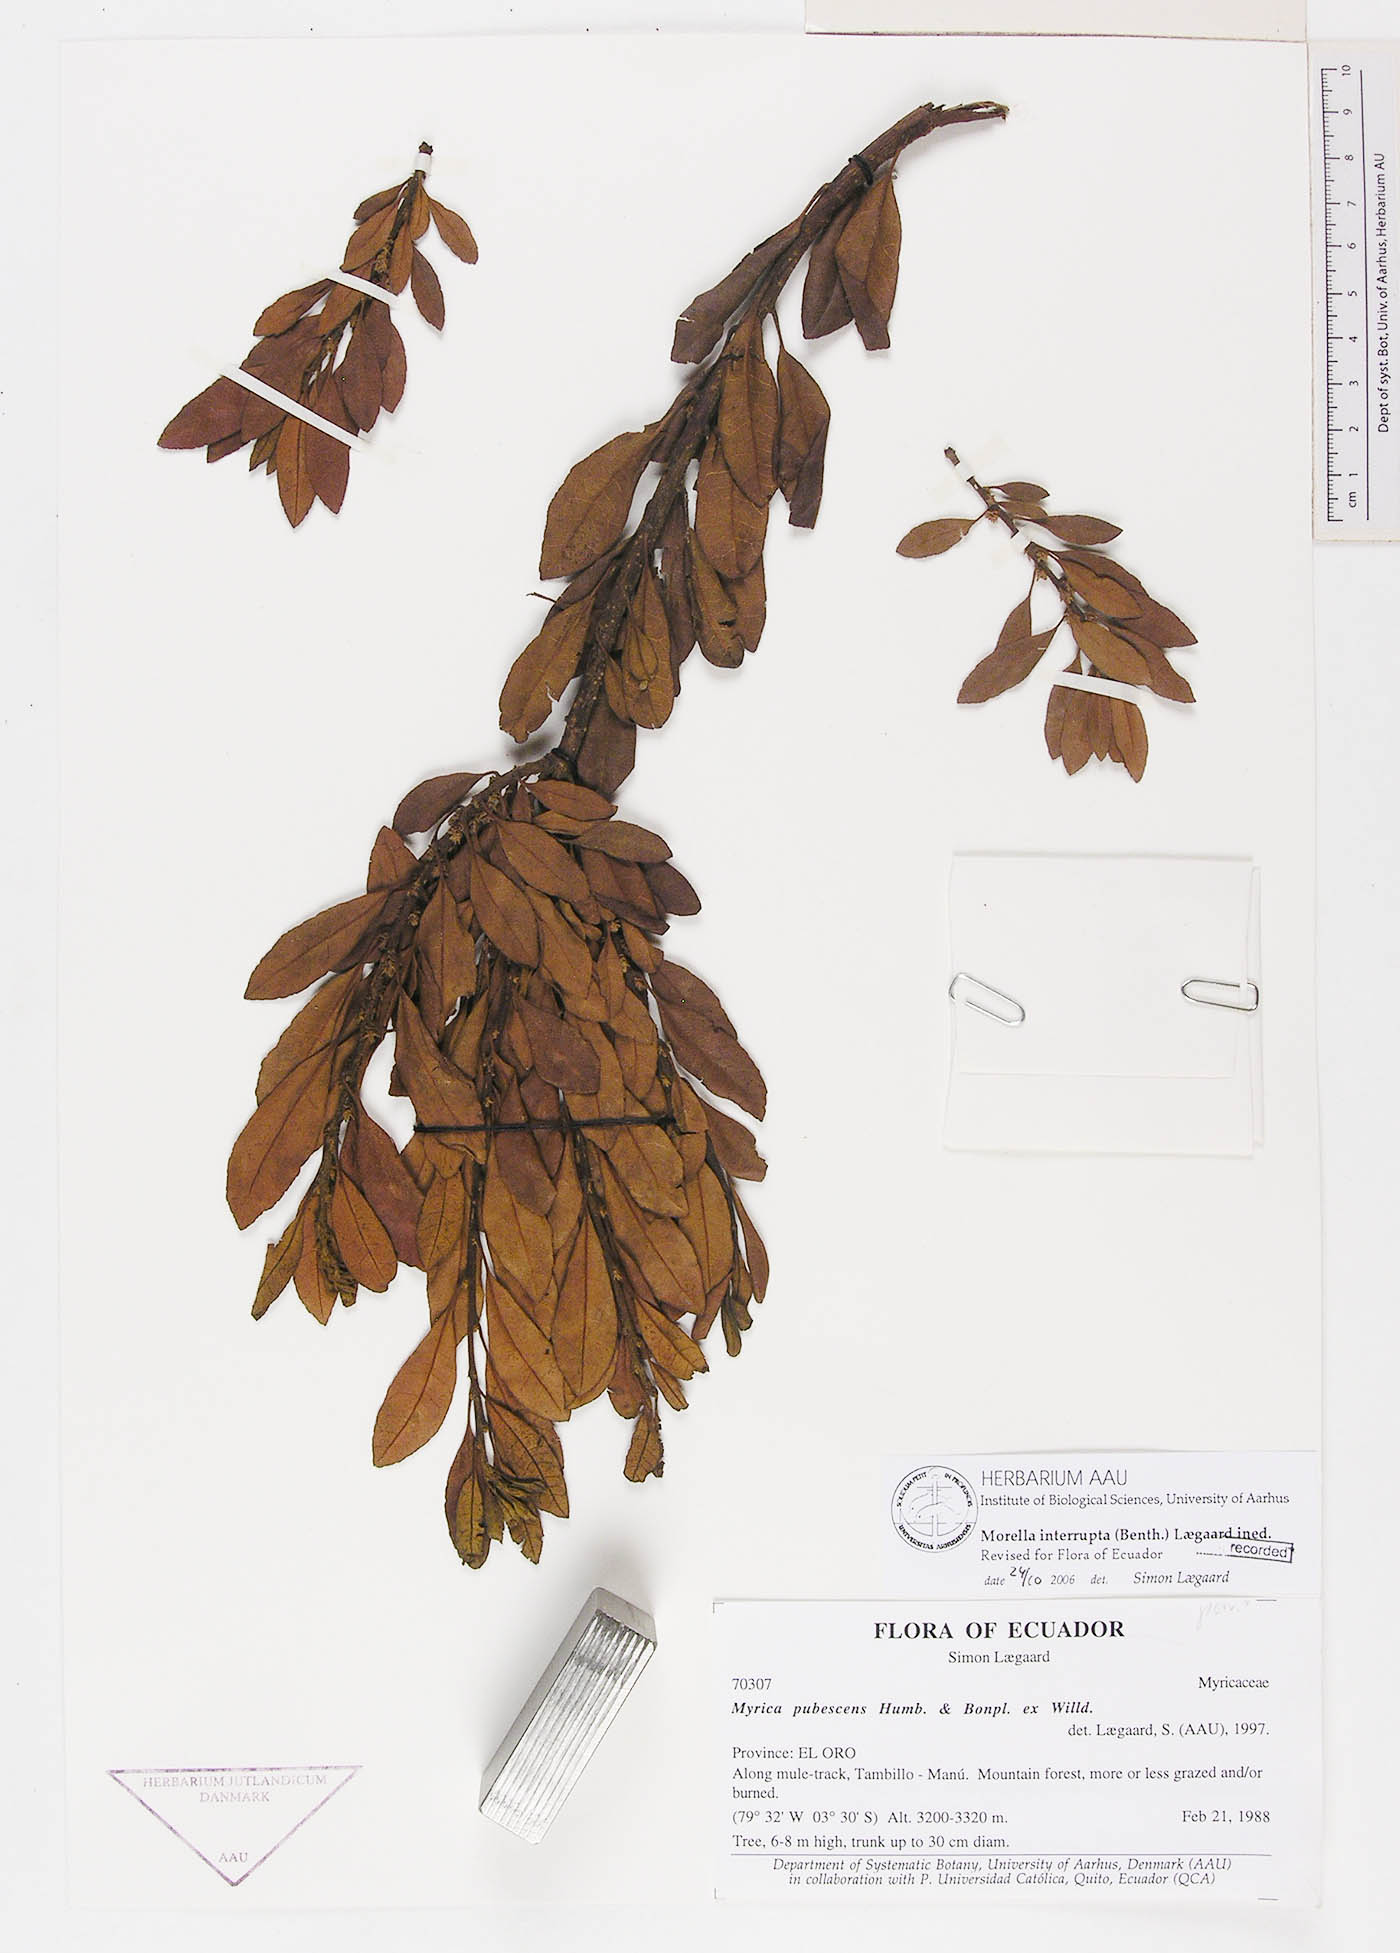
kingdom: Plantae
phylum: Tracheophyta
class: Magnoliopsida
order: Fagales
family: Myricaceae
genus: Morella
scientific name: Morella interrupta
